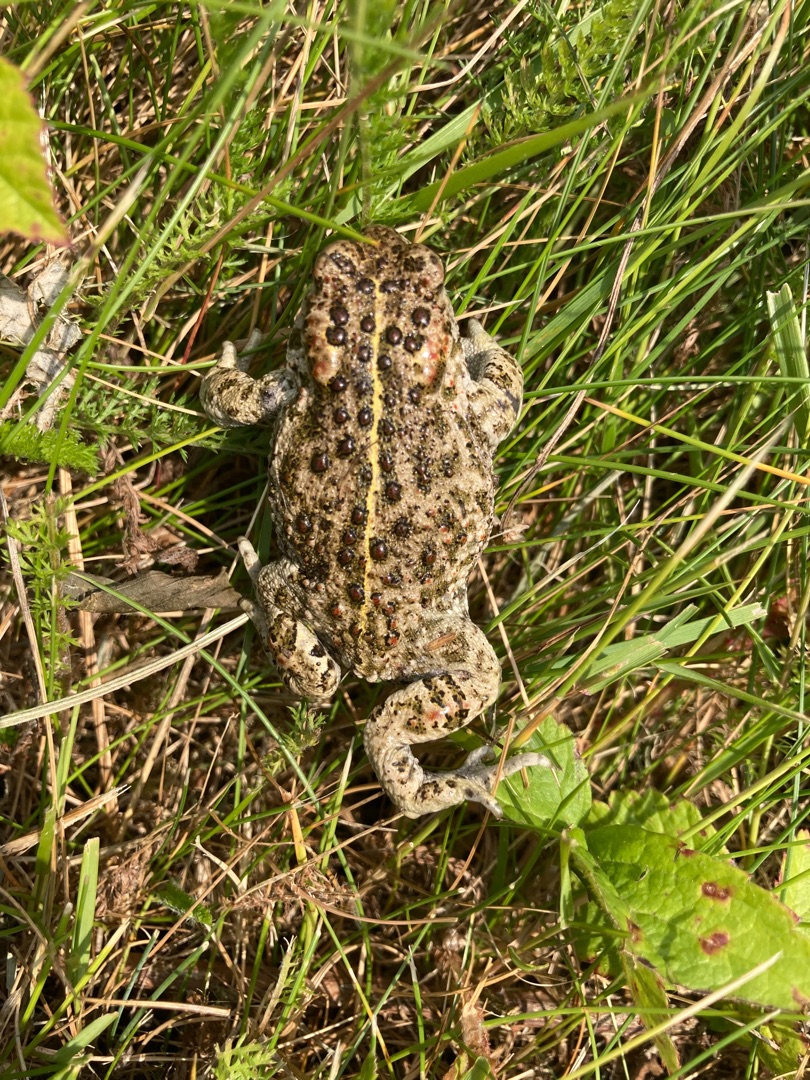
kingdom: Animalia
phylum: Chordata
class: Amphibia
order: Anura
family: Bufonidae
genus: Epidalea
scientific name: Epidalea calamita
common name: Strandtudse
